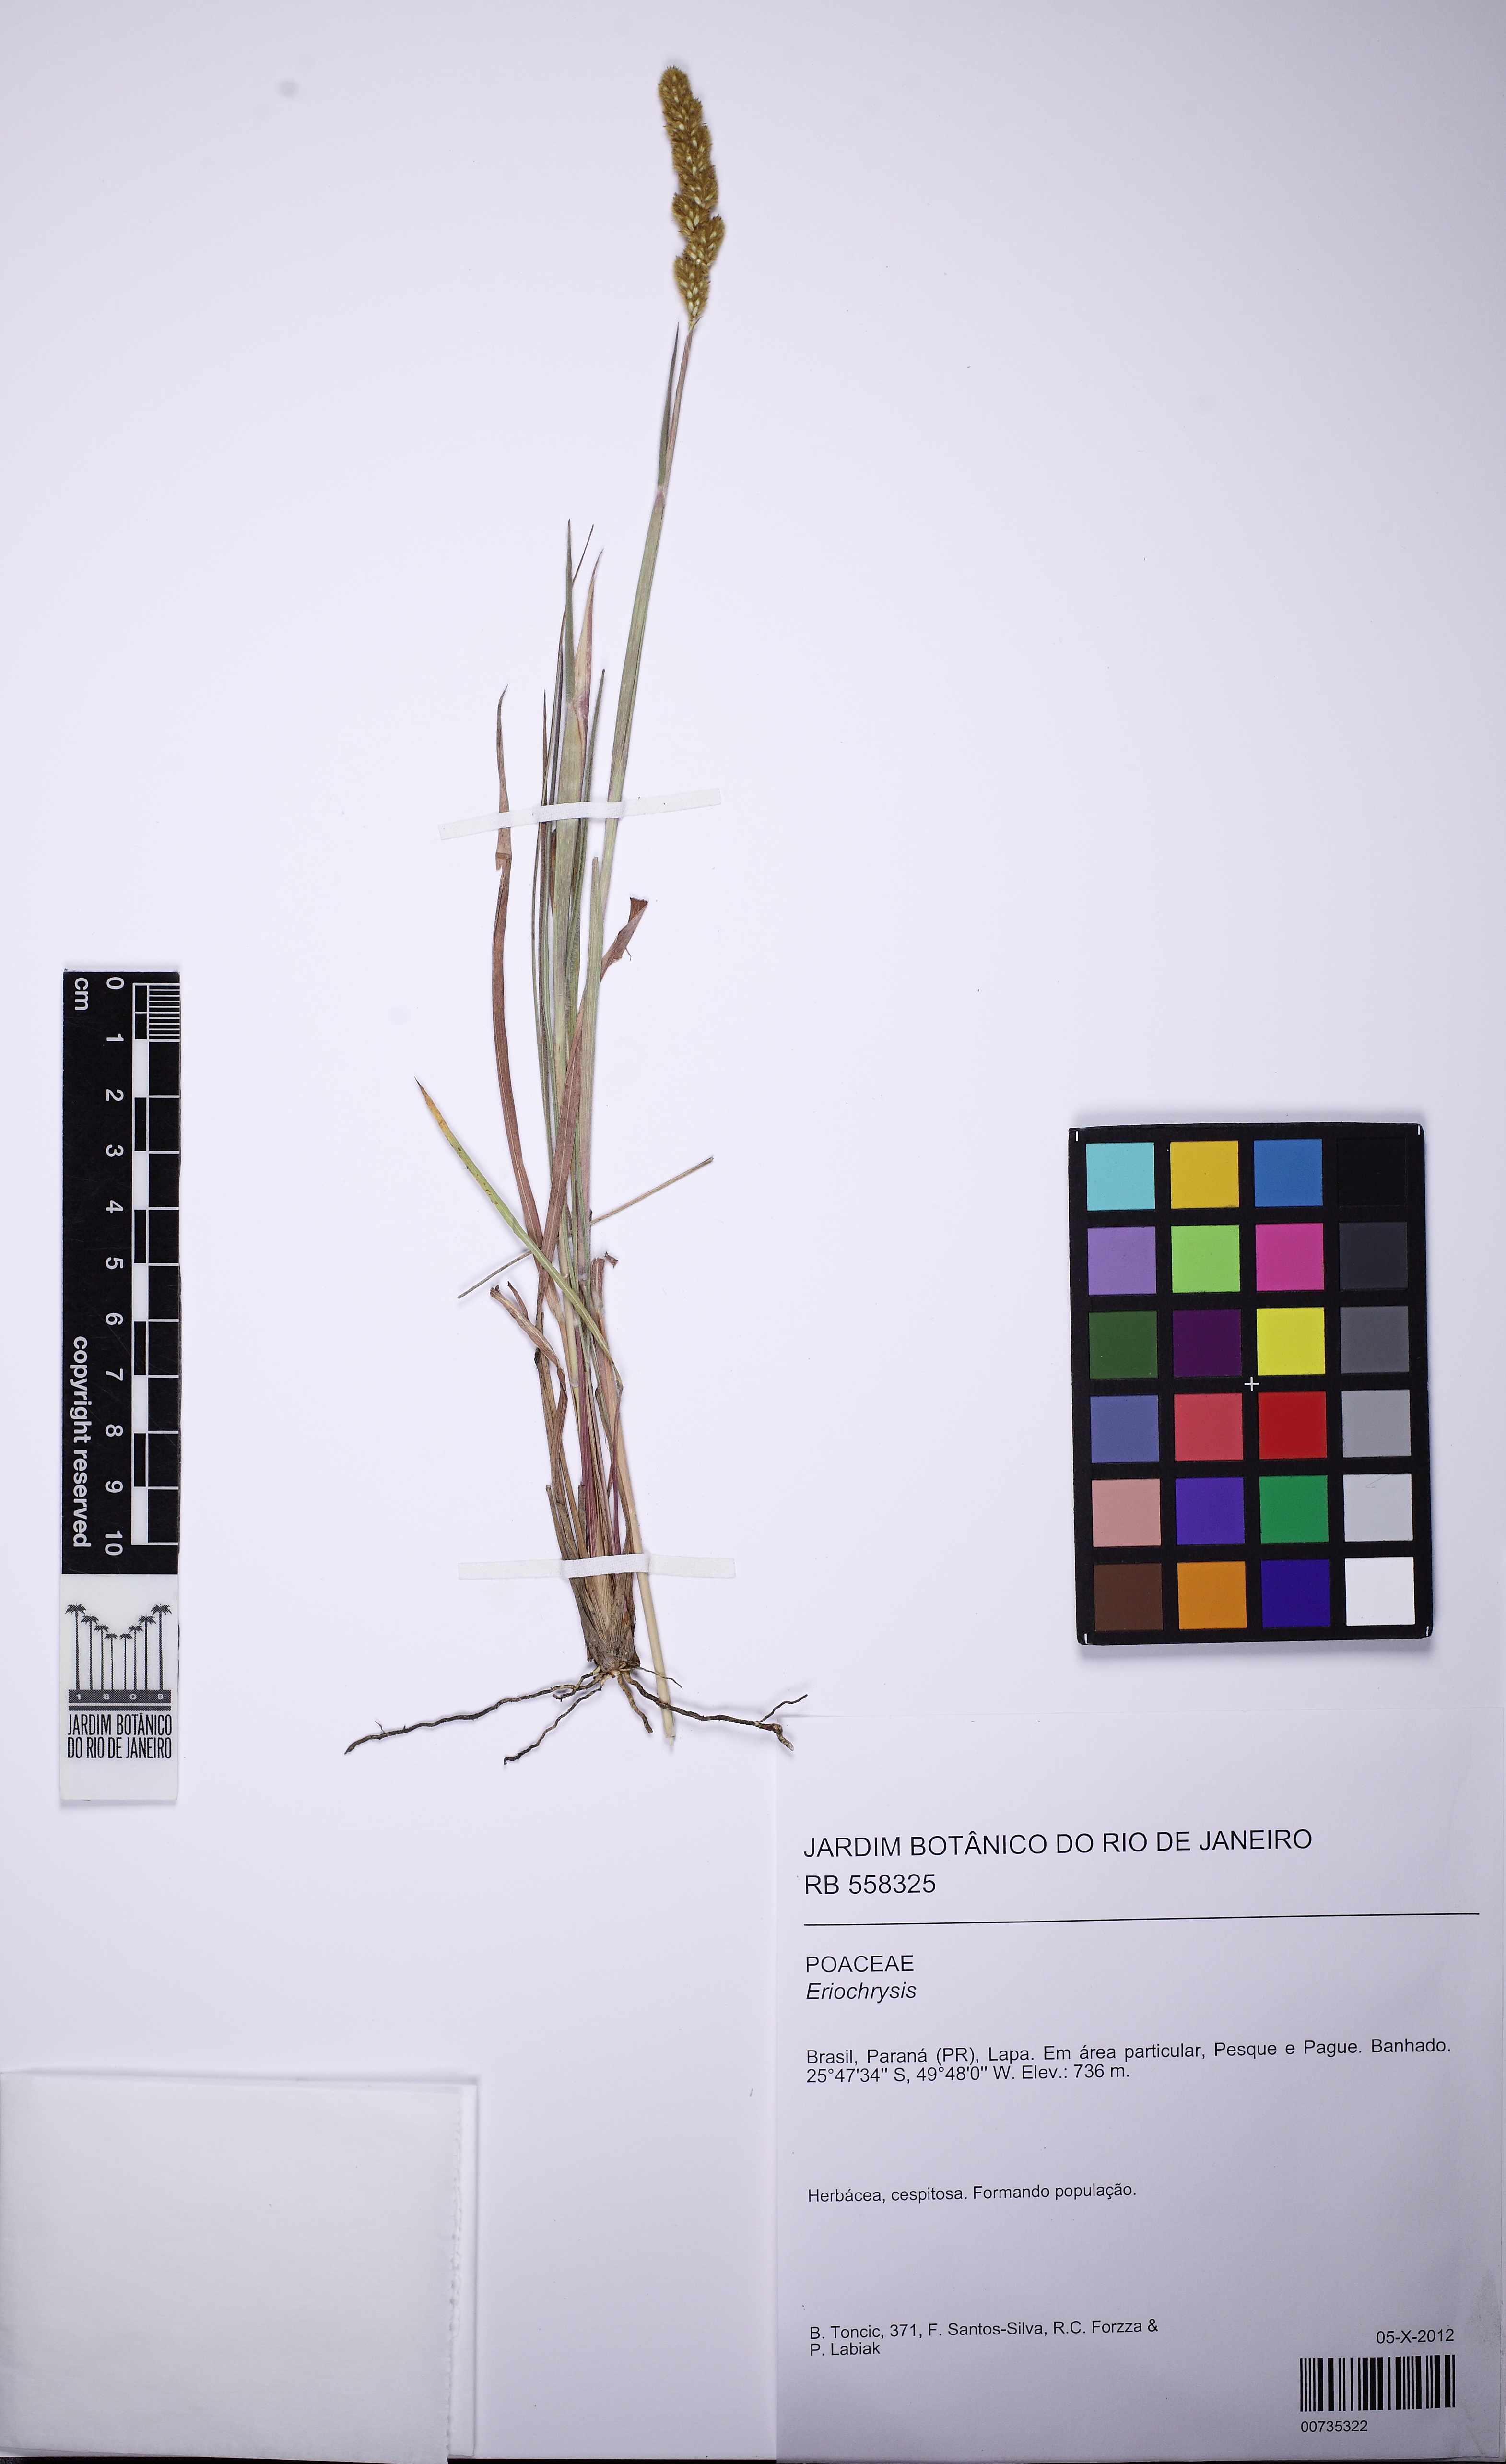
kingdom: Plantae
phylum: Tracheophyta
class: Liliopsida
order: Poales
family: Poaceae
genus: Eriochrysis
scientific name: Eriochrysis
